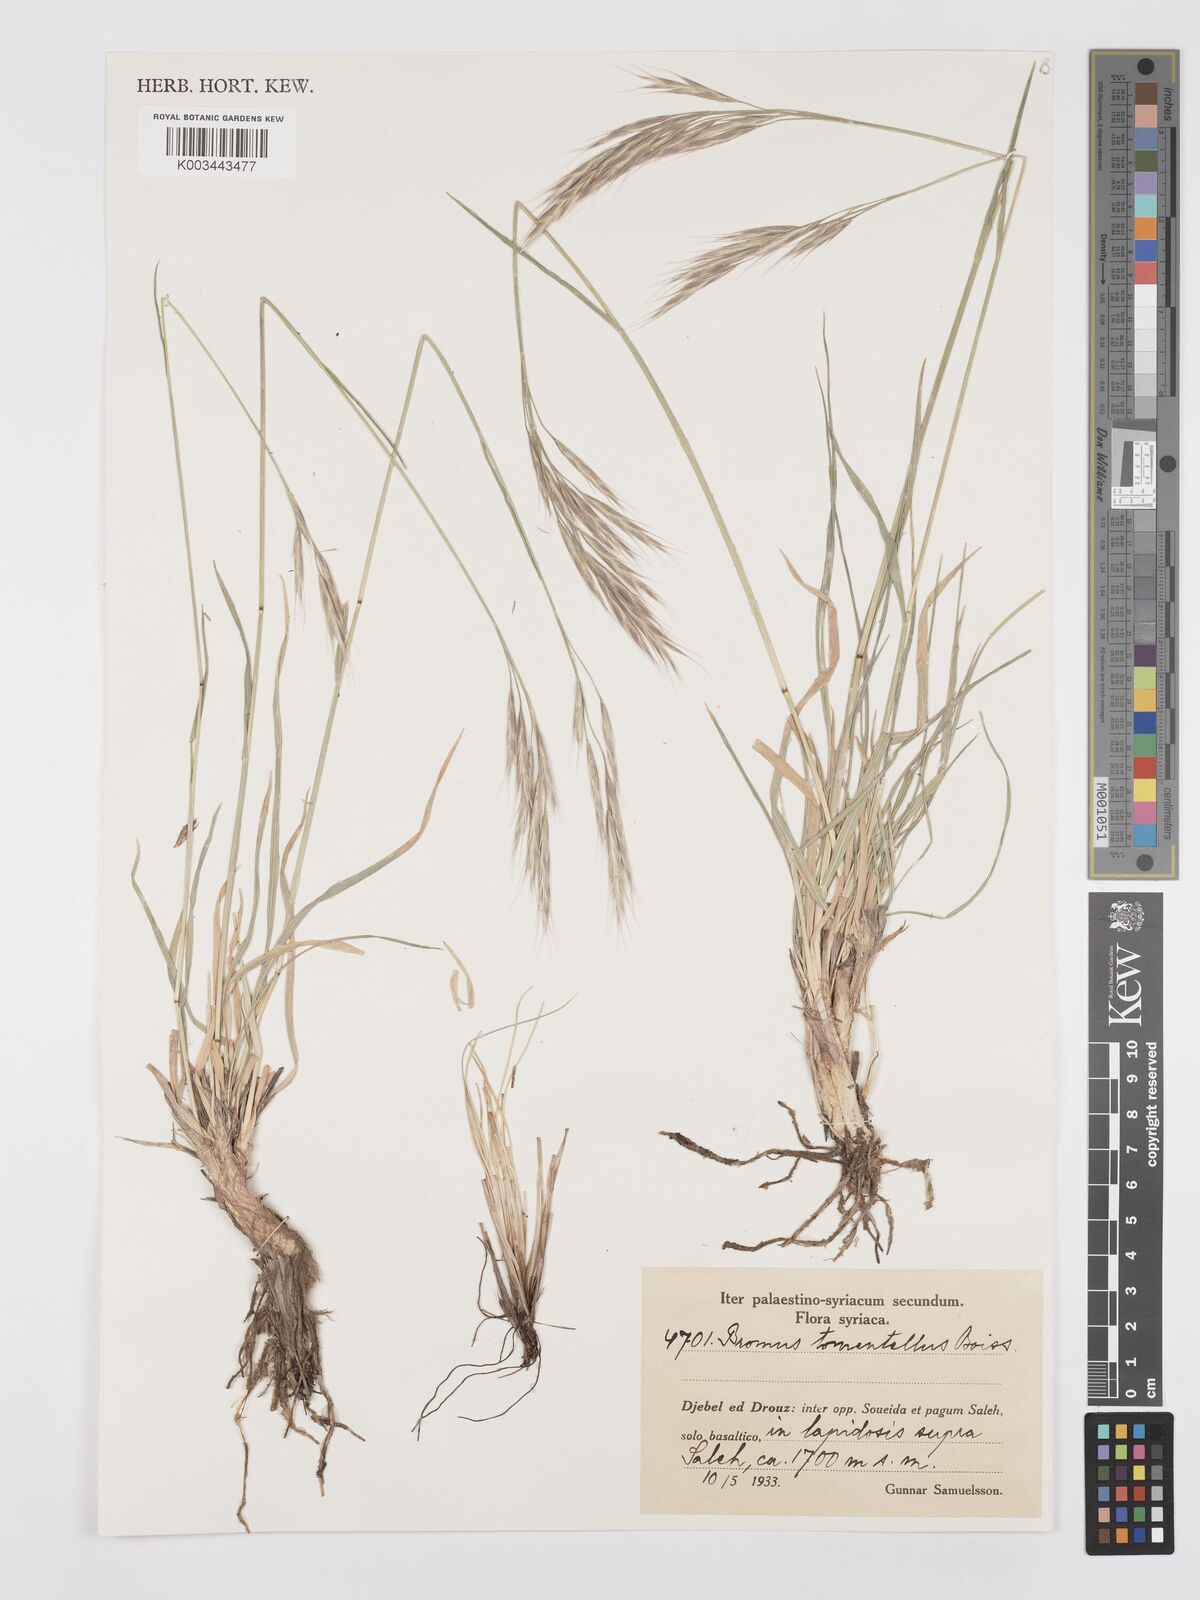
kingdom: Plantae
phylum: Tracheophyta
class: Liliopsida
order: Poales
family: Poaceae
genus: Bromus
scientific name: Bromus tomentellus
